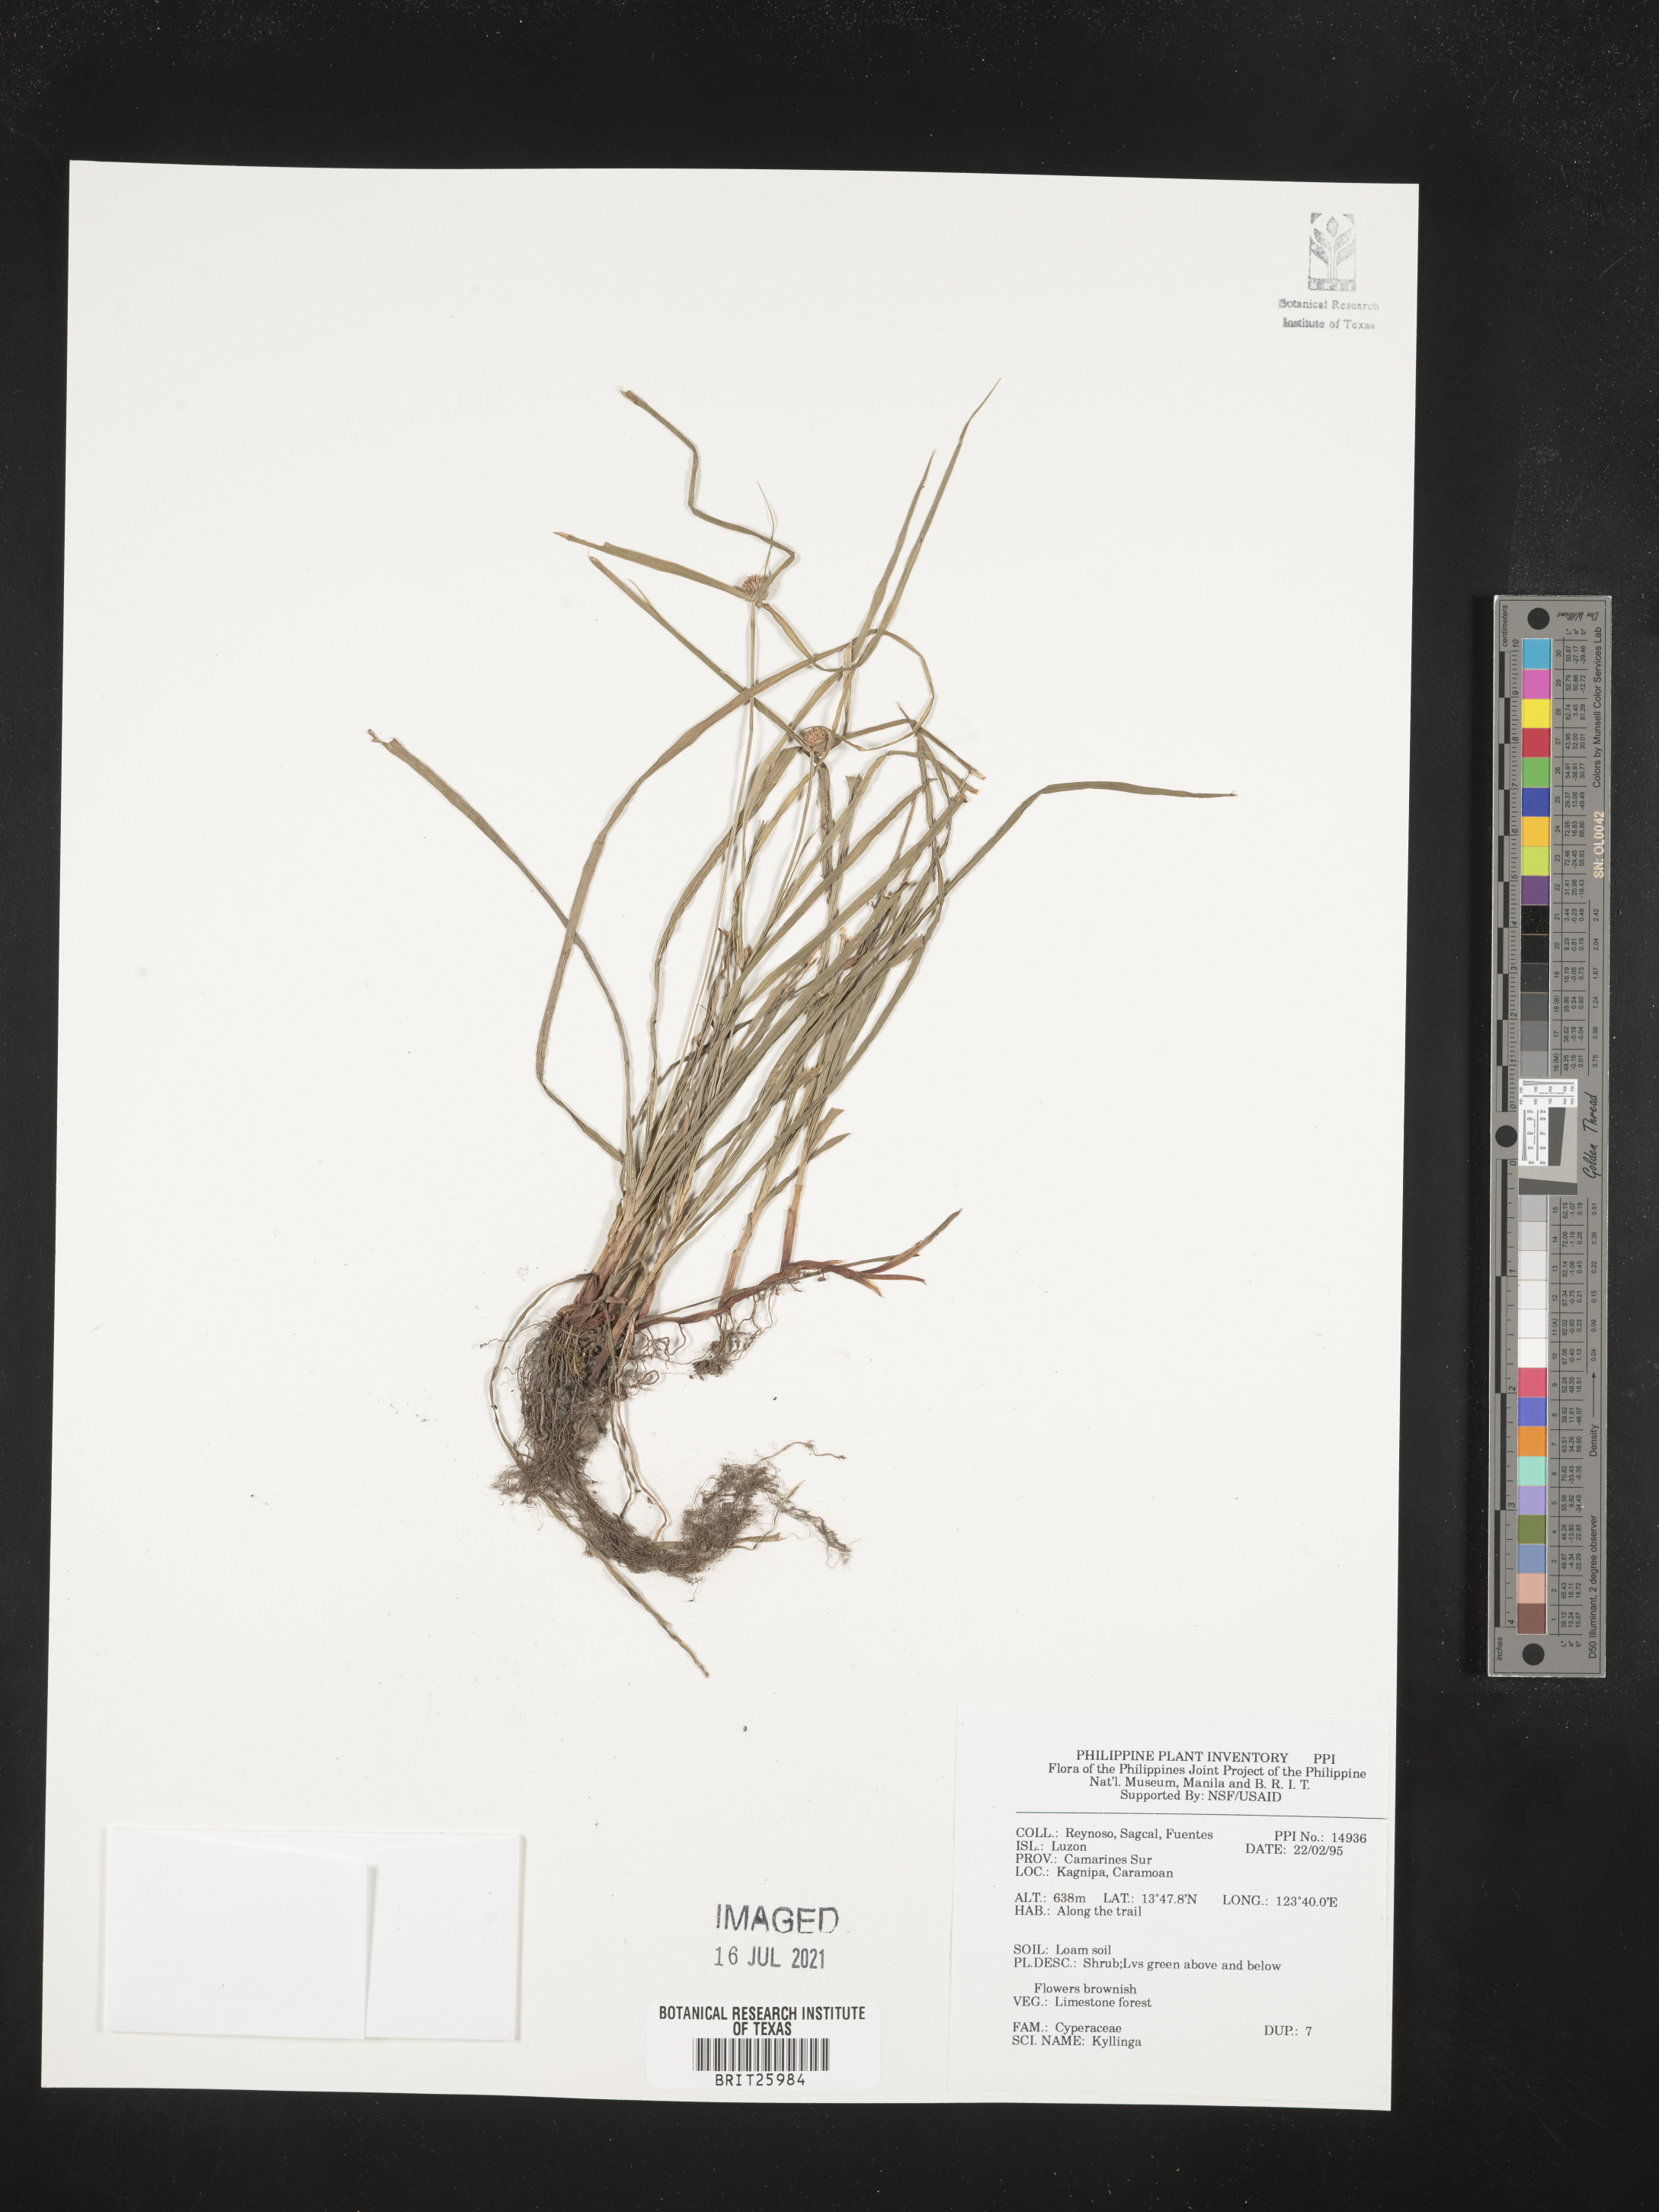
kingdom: Plantae
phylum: Tracheophyta
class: Liliopsida
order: Poales
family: Cyperaceae
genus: Cyperus
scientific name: Cyperus
